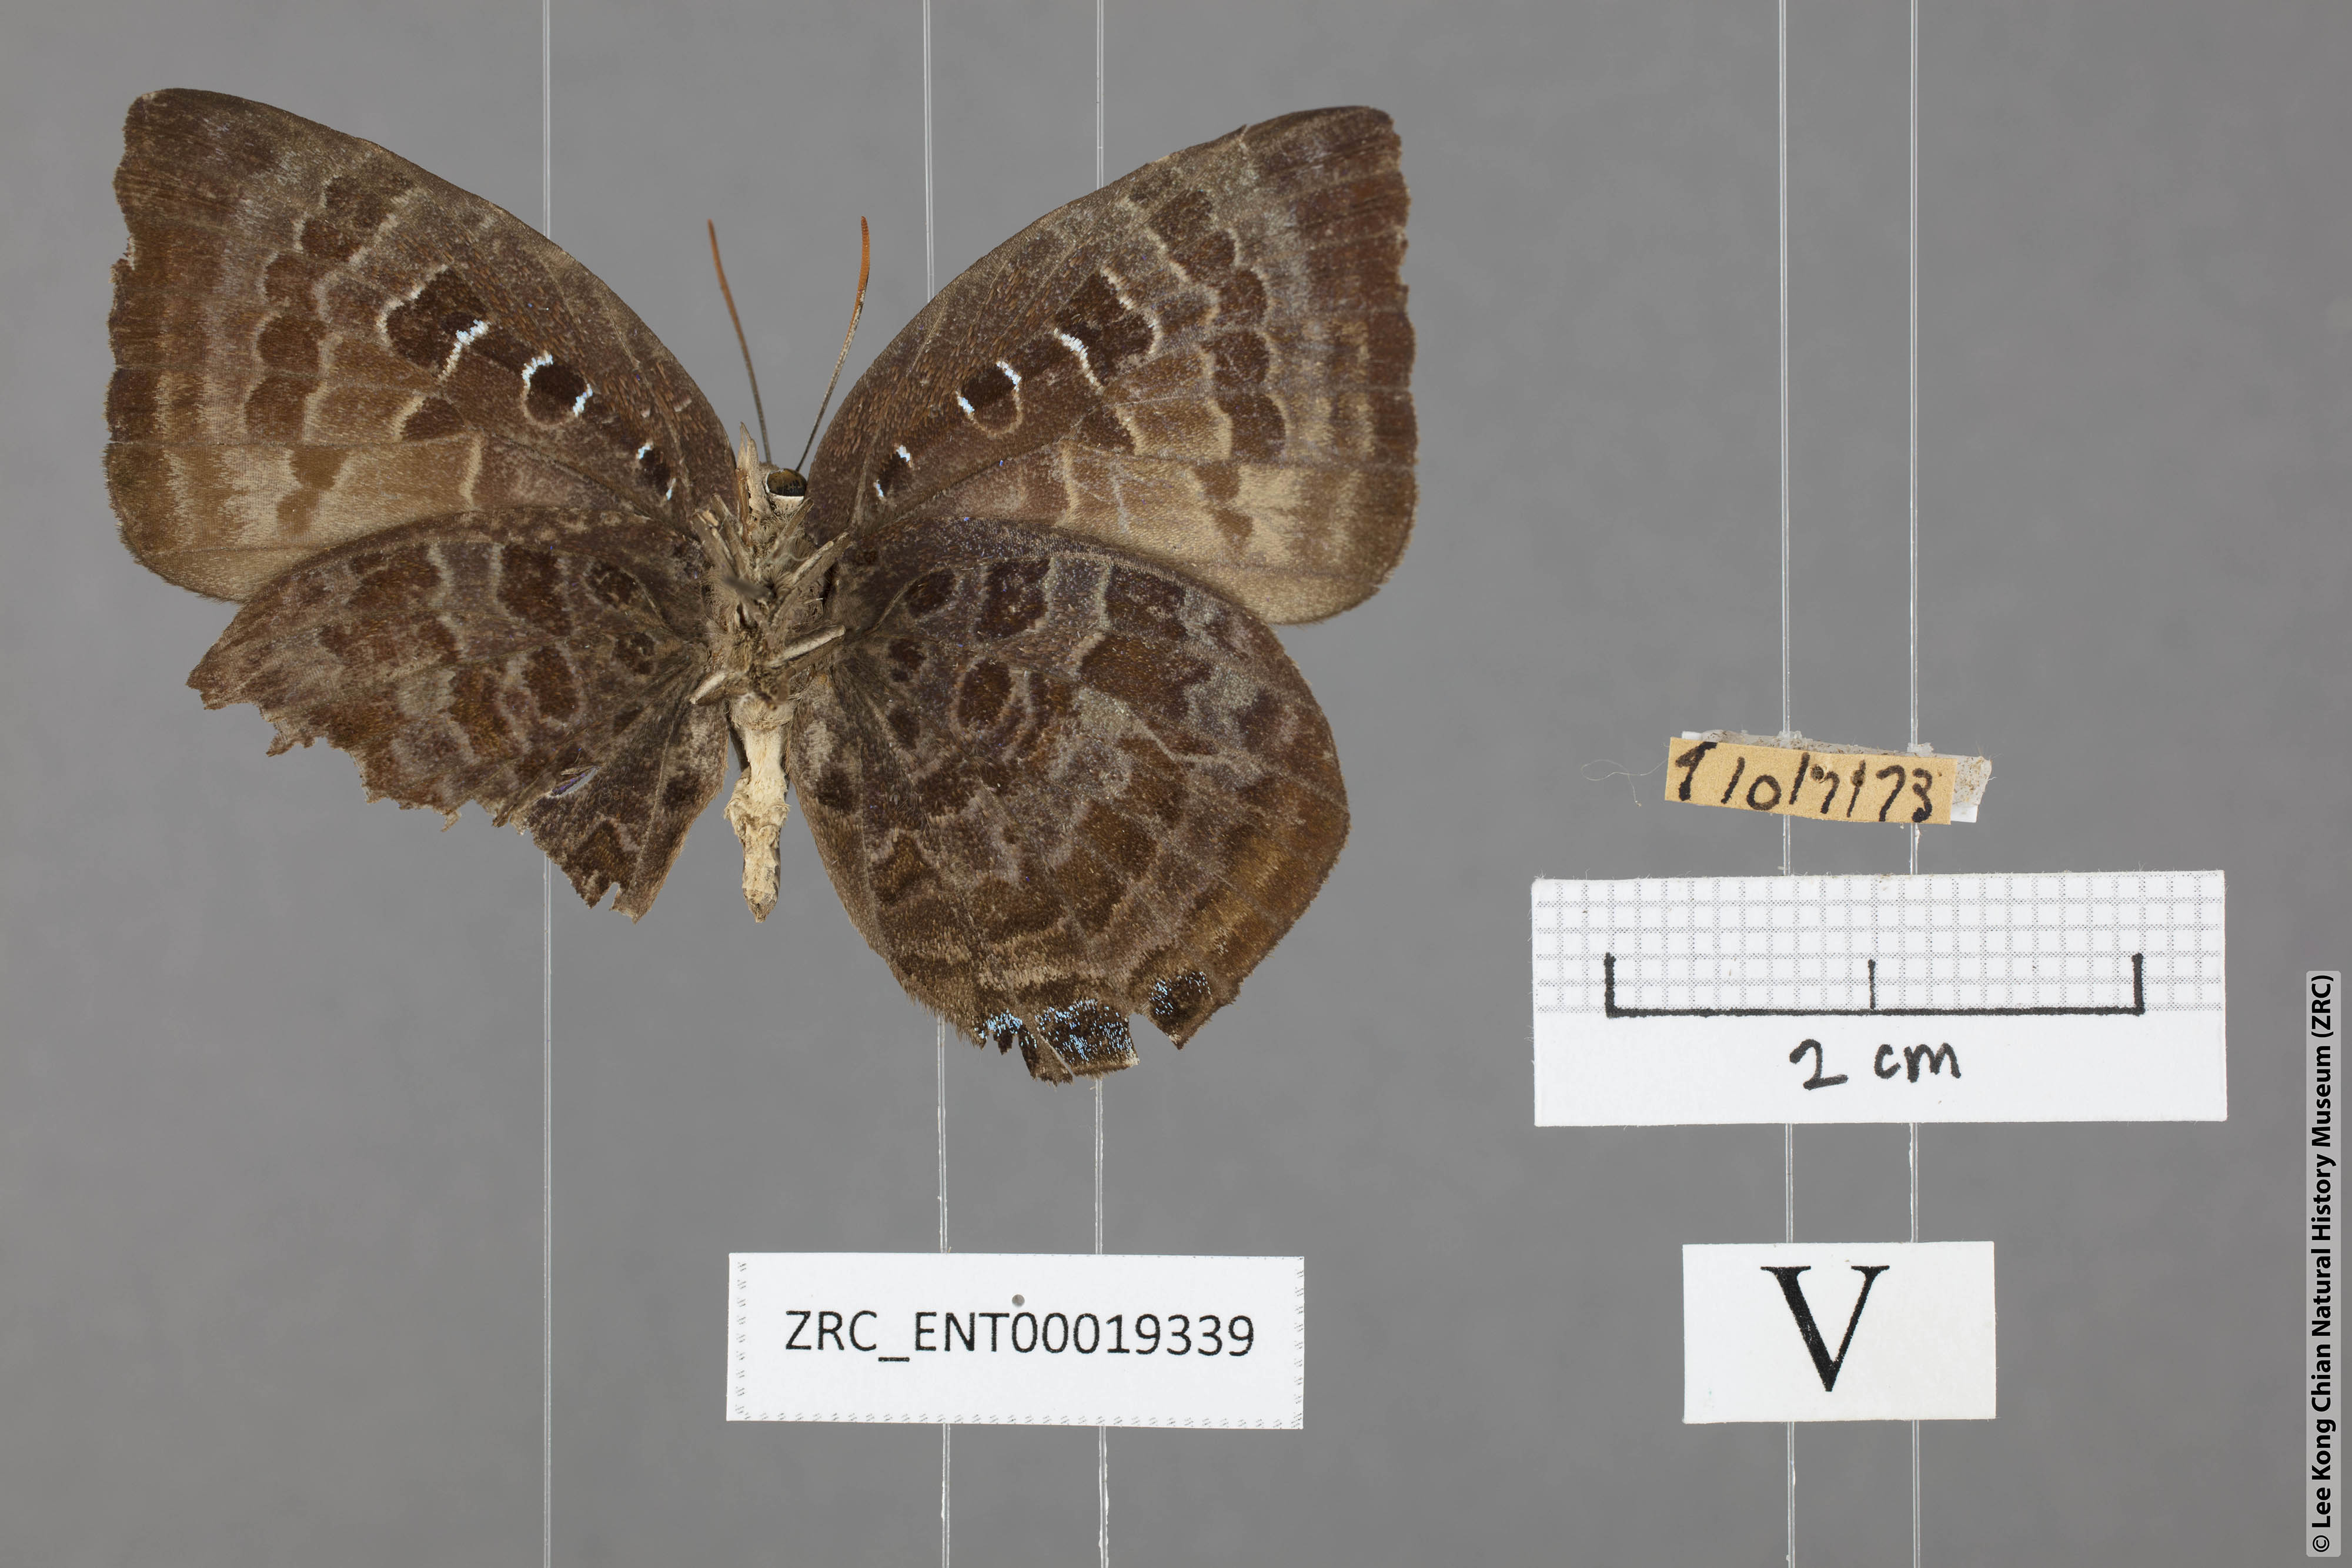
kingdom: Animalia
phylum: Arthropoda
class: Insecta
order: Lepidoptera
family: Lycaenidae
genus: Arhopala
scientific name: Arhopala centaurus
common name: Dull oak-blue
